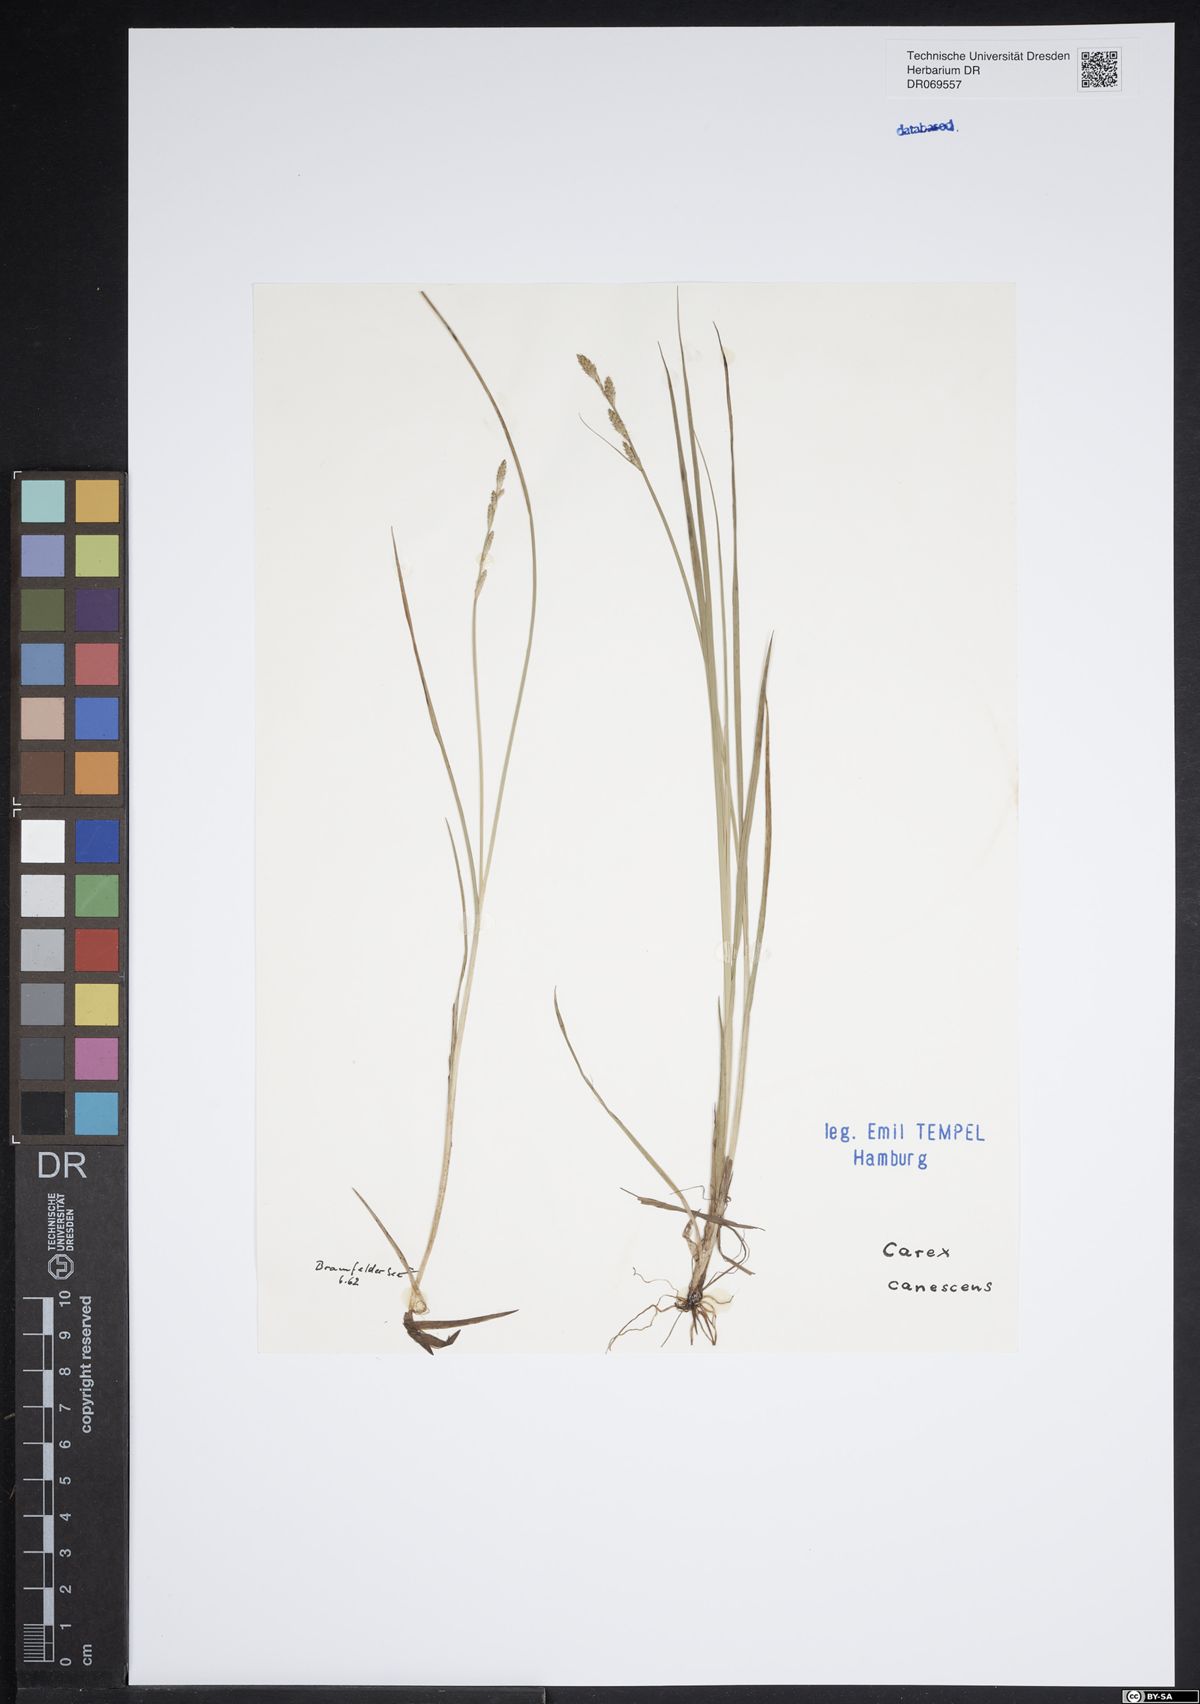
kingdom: Plantae
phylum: Tracheophyta
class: Liliopsida
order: Poales
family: Cyperaceae
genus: Carex
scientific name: Carex canescens
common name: White sedge
